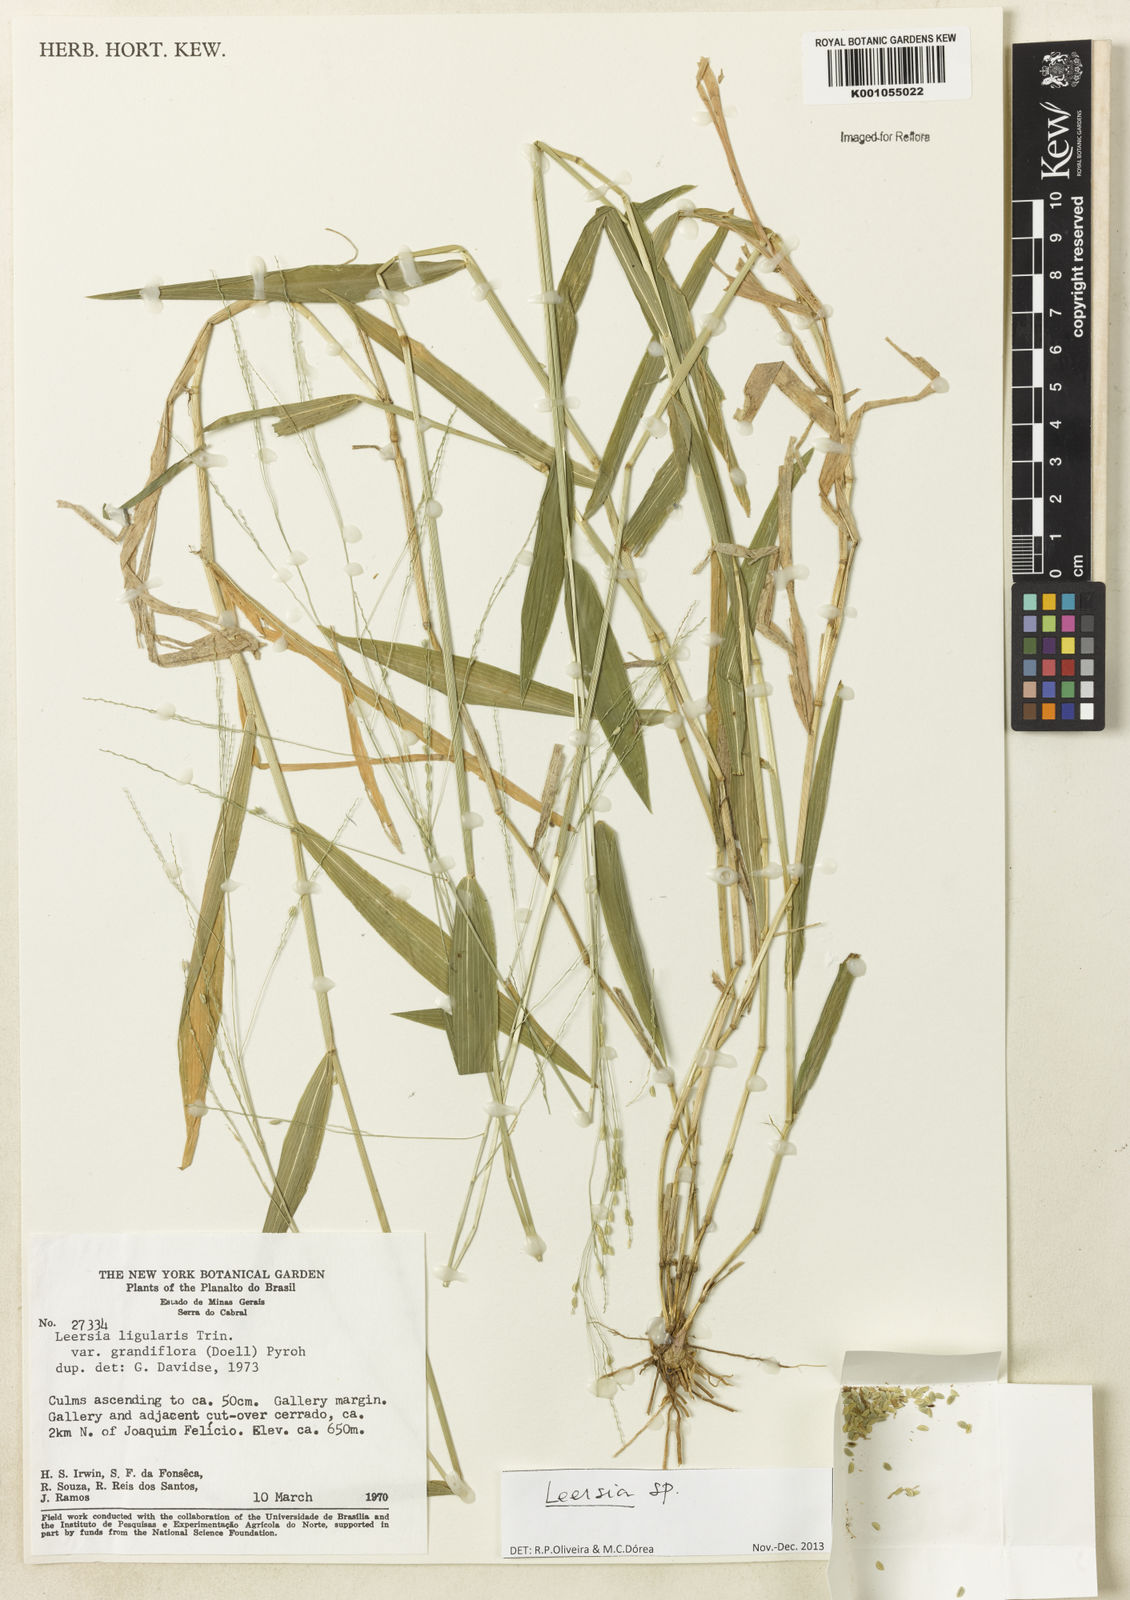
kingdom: Plantae
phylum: Tracheophyta
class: Liliopsida
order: Poales
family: Poaceae
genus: Leersia
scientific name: Leersia
